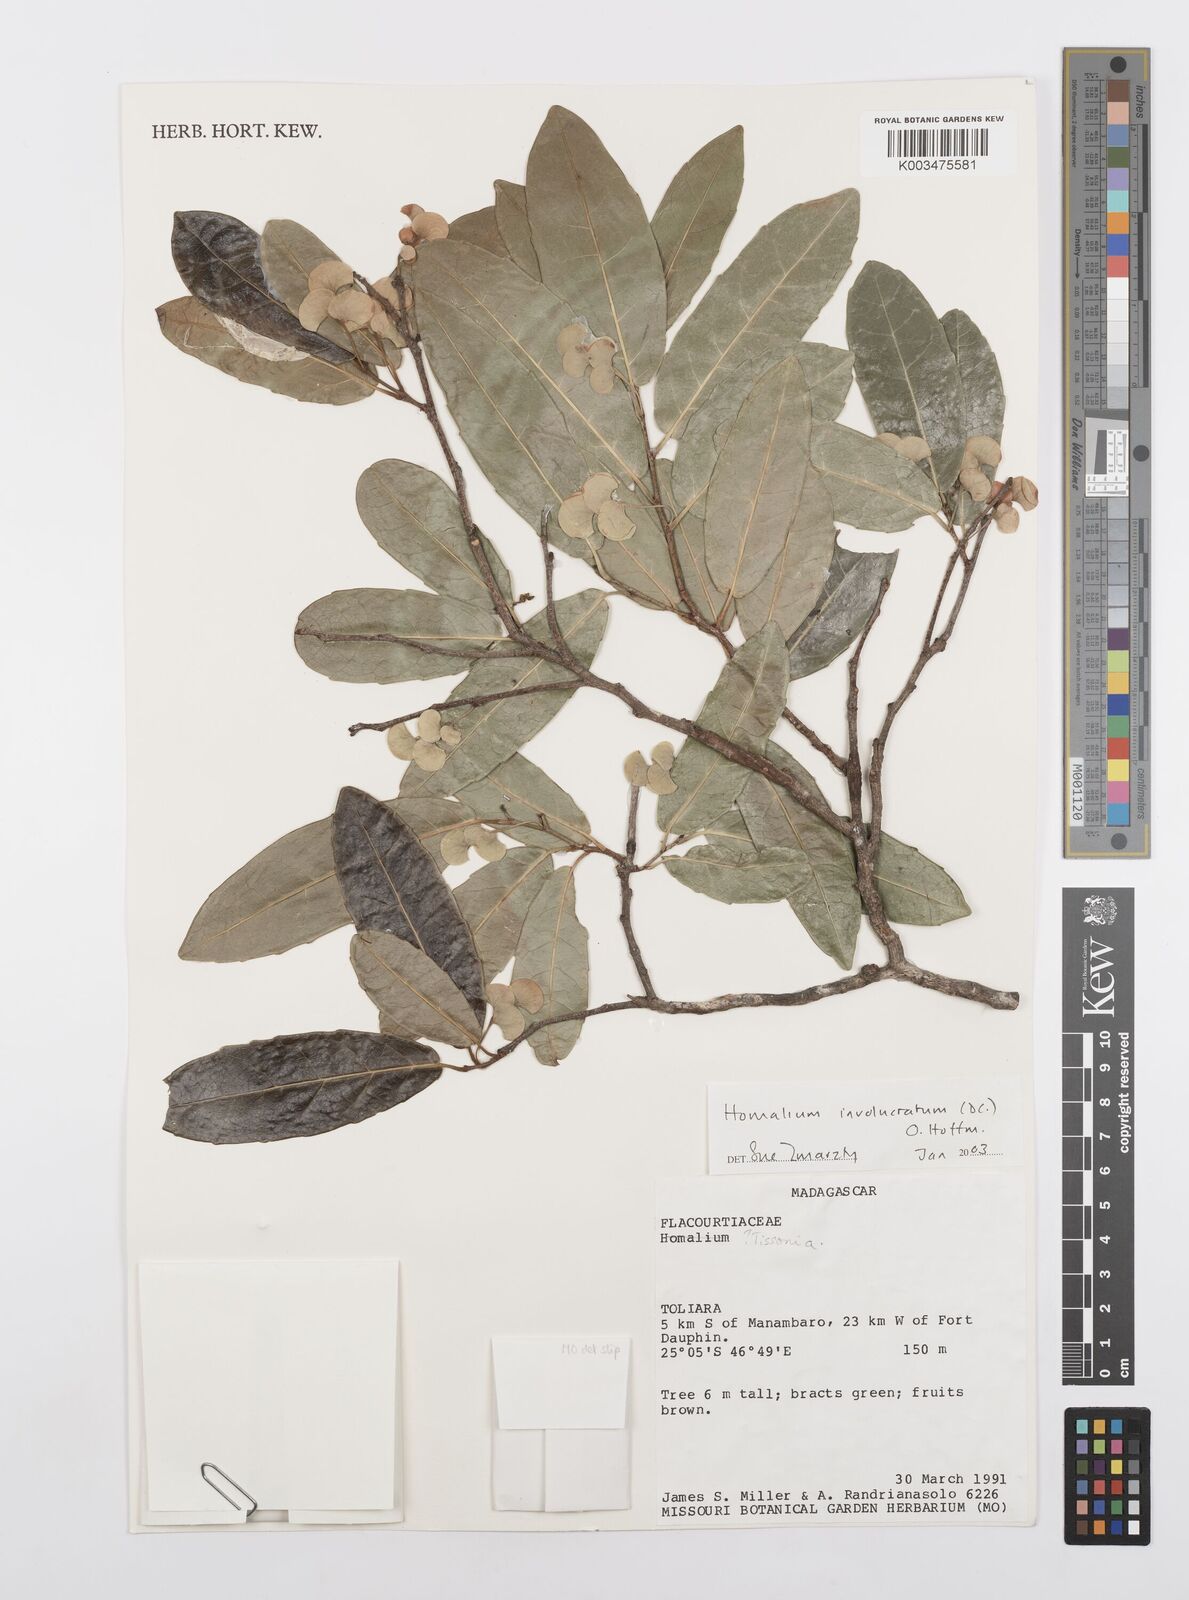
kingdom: Plantae
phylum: Tracheophyta
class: Magnoliopsida
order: Malpighiales
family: Salicaceae
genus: Homalium
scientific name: Homalium involucratum
